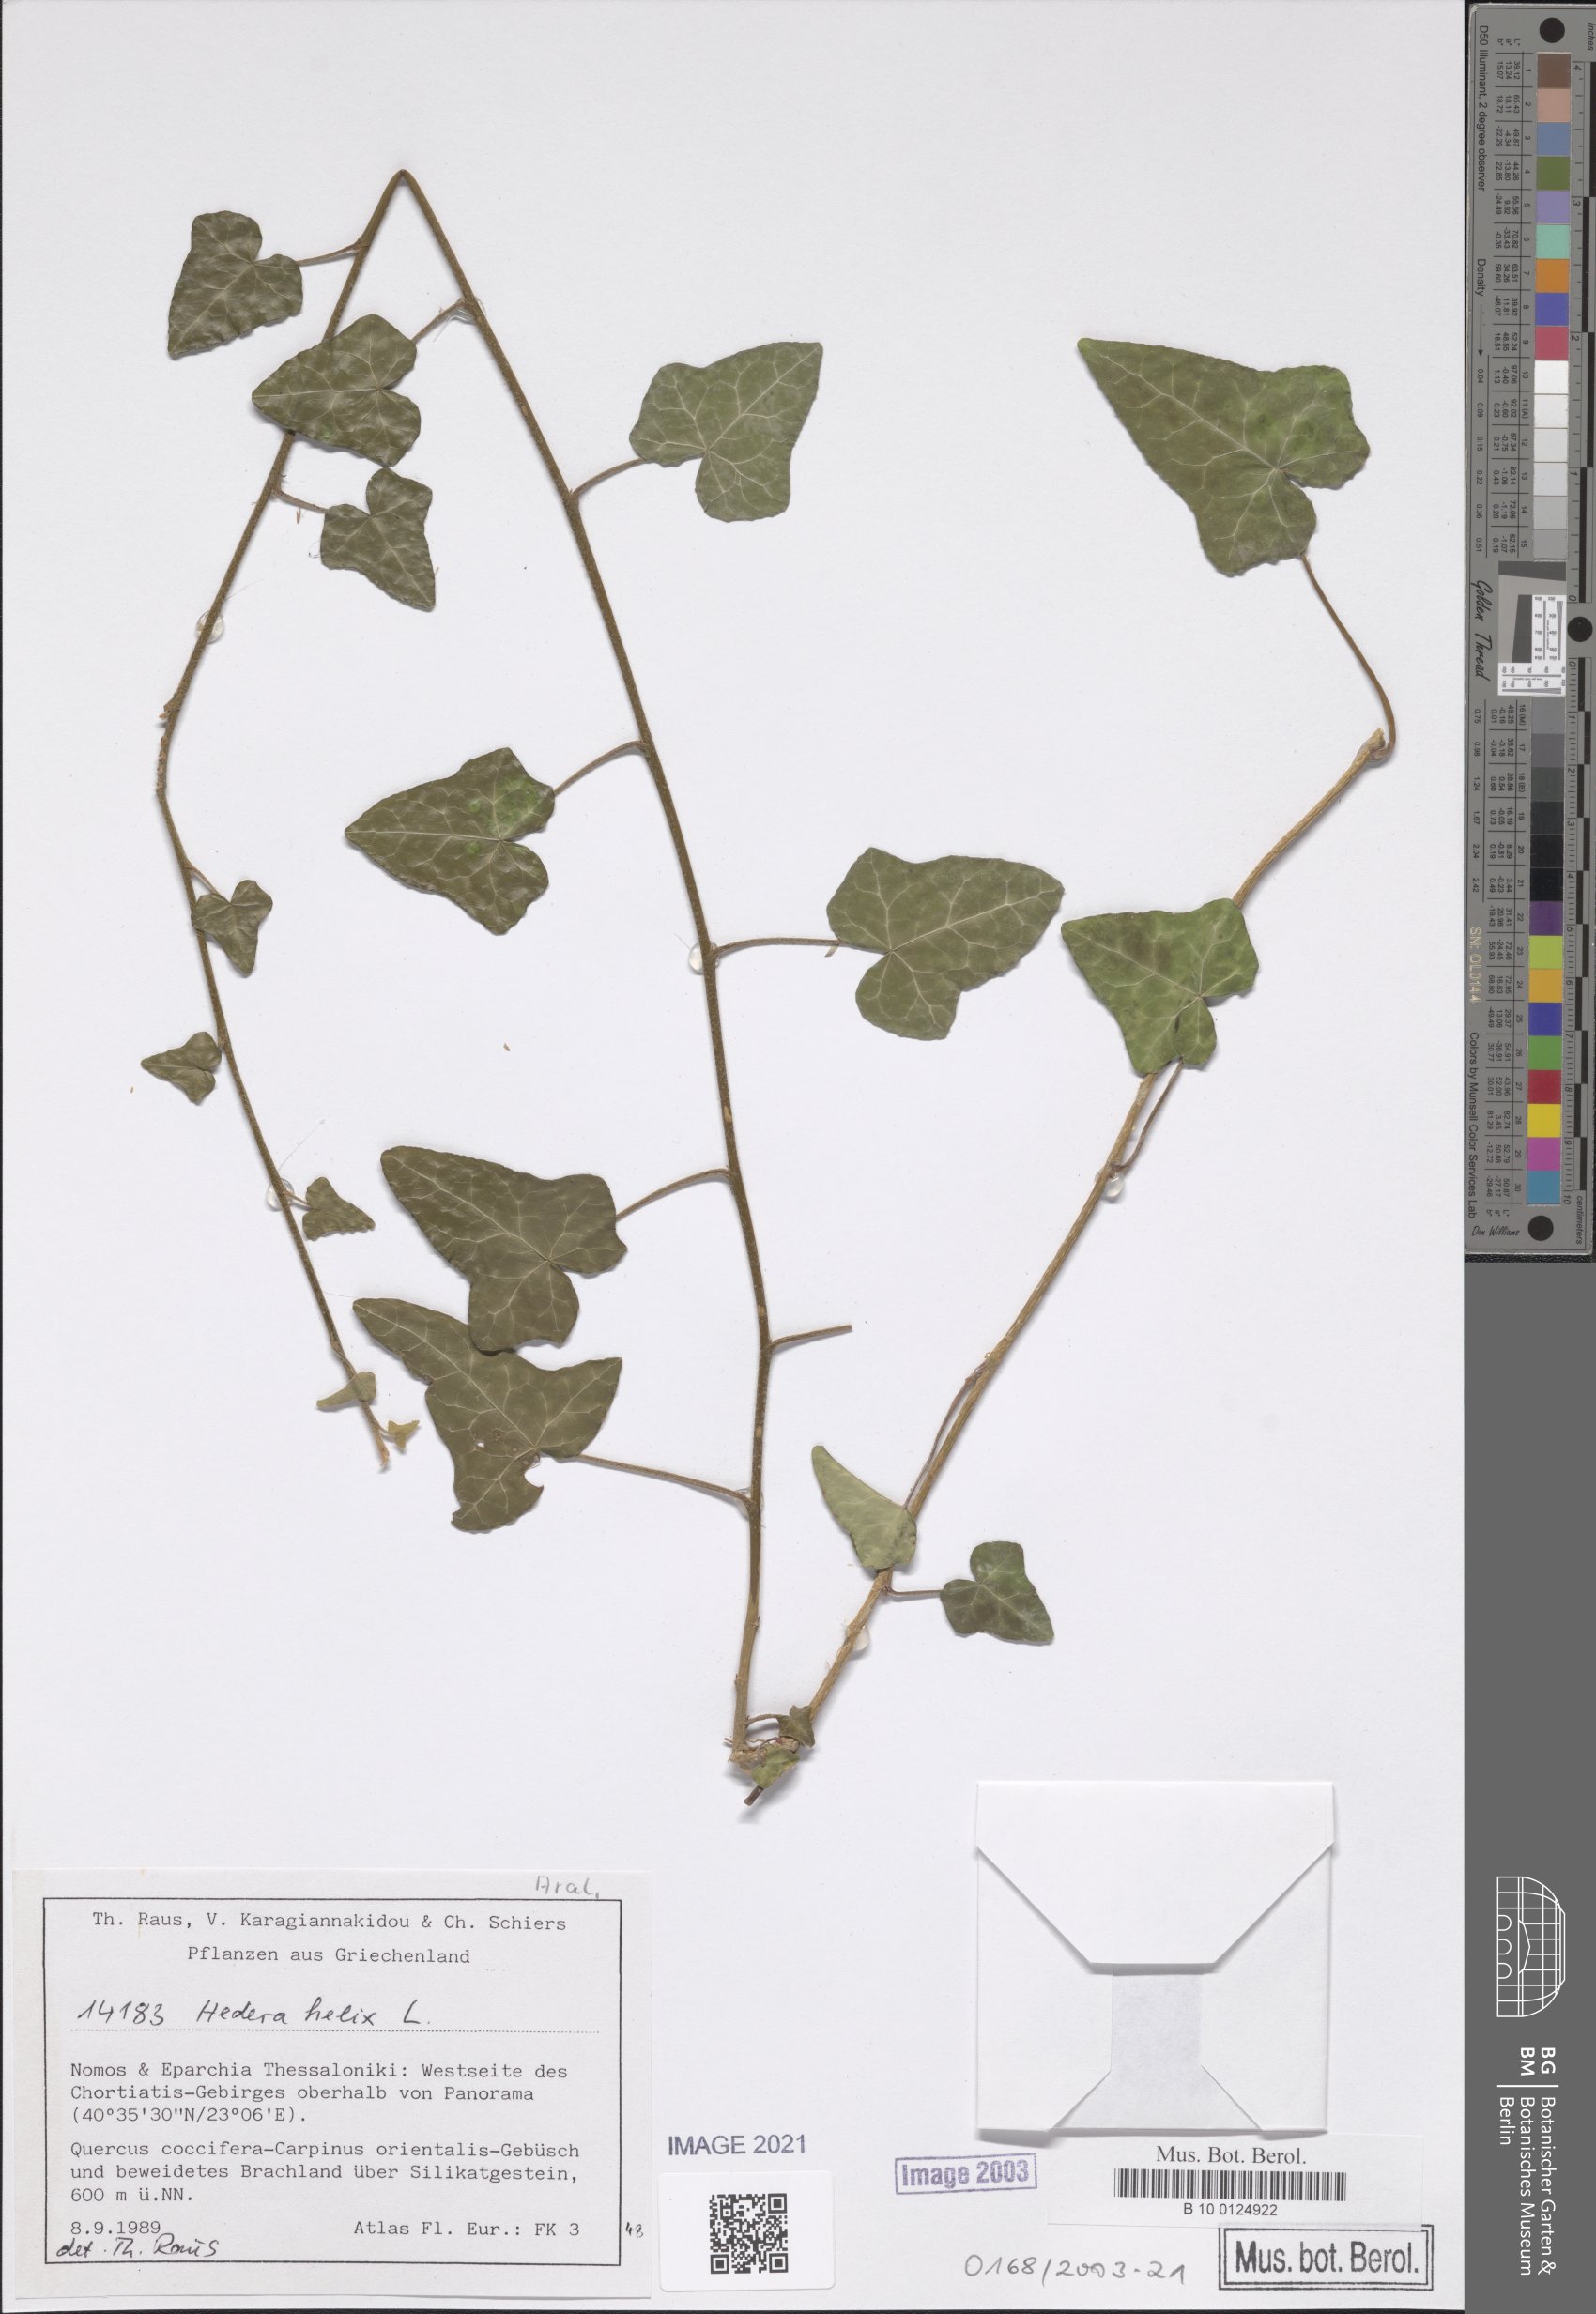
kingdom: Plantae
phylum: Tracheophyta
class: Magnoliopsida
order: Apiales
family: Araliaceae
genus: Hedera
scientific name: Hedera helix
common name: Ivy
